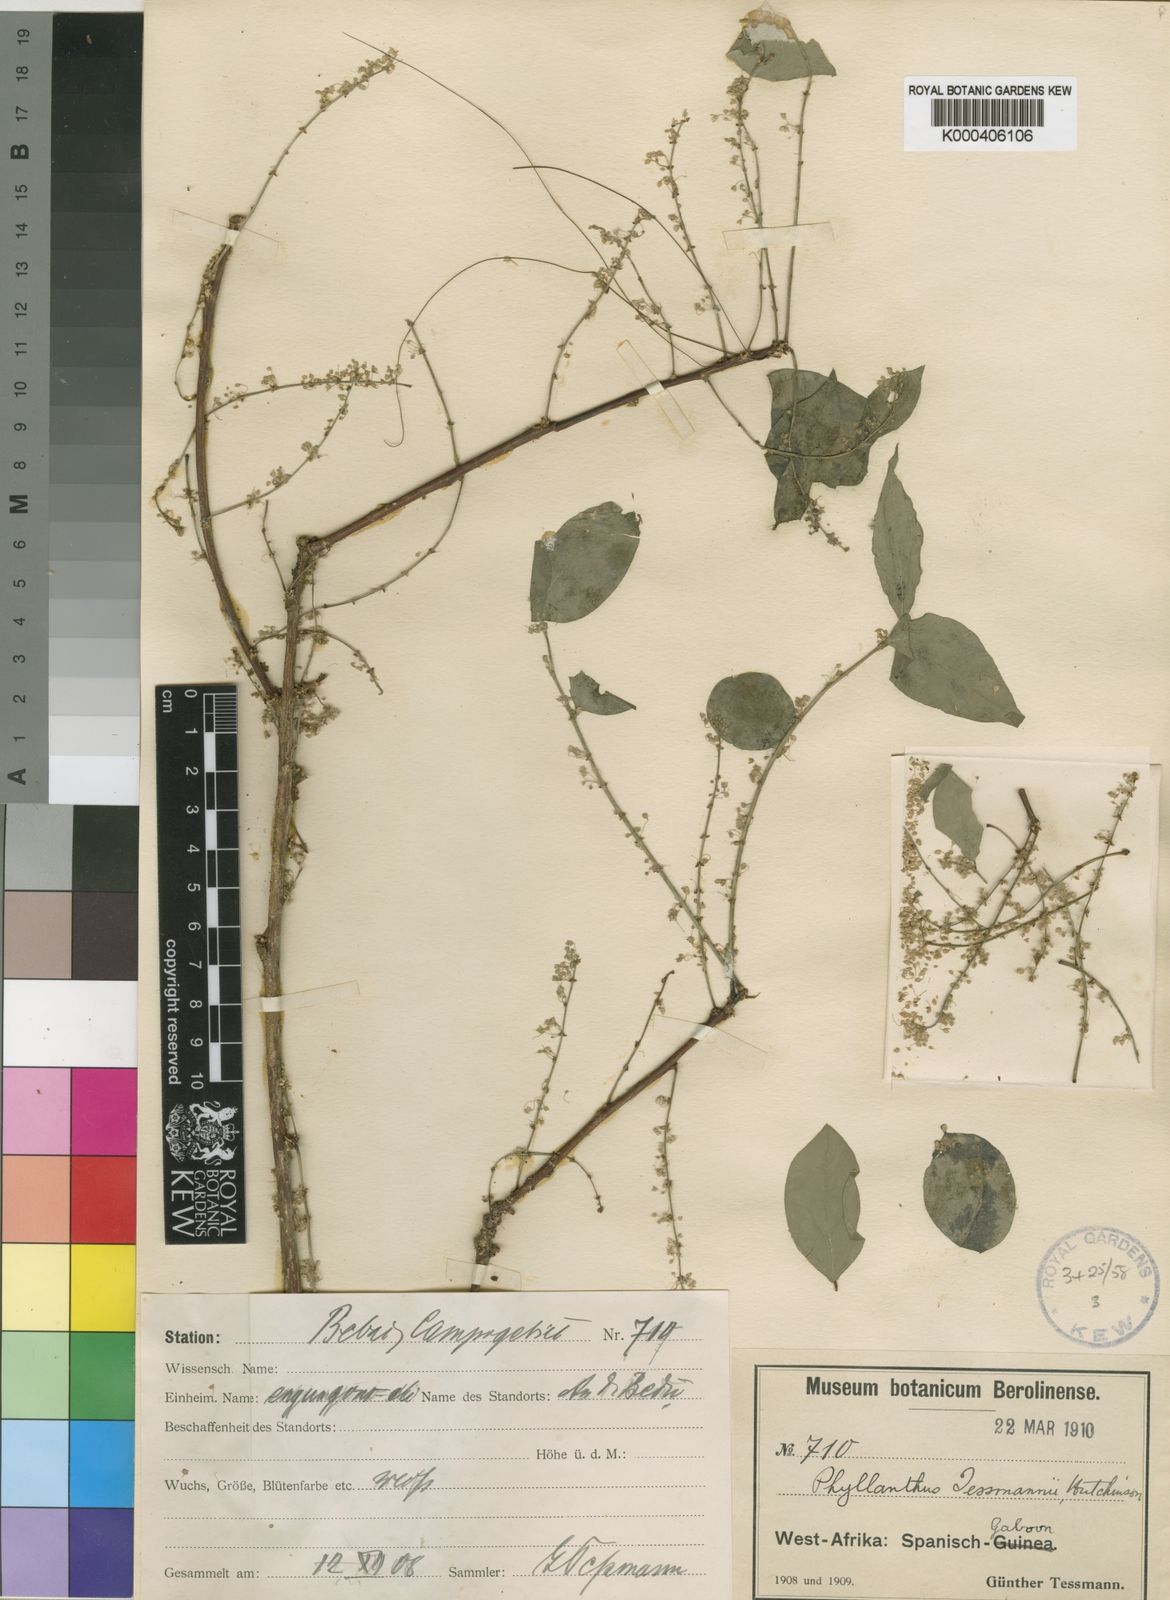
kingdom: Plantae
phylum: Tracheophyta
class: Magnoliopsida
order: Malpighiales
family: Phyllanthaceae
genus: Phyllanthus
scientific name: Phyllanthus tessmannii
